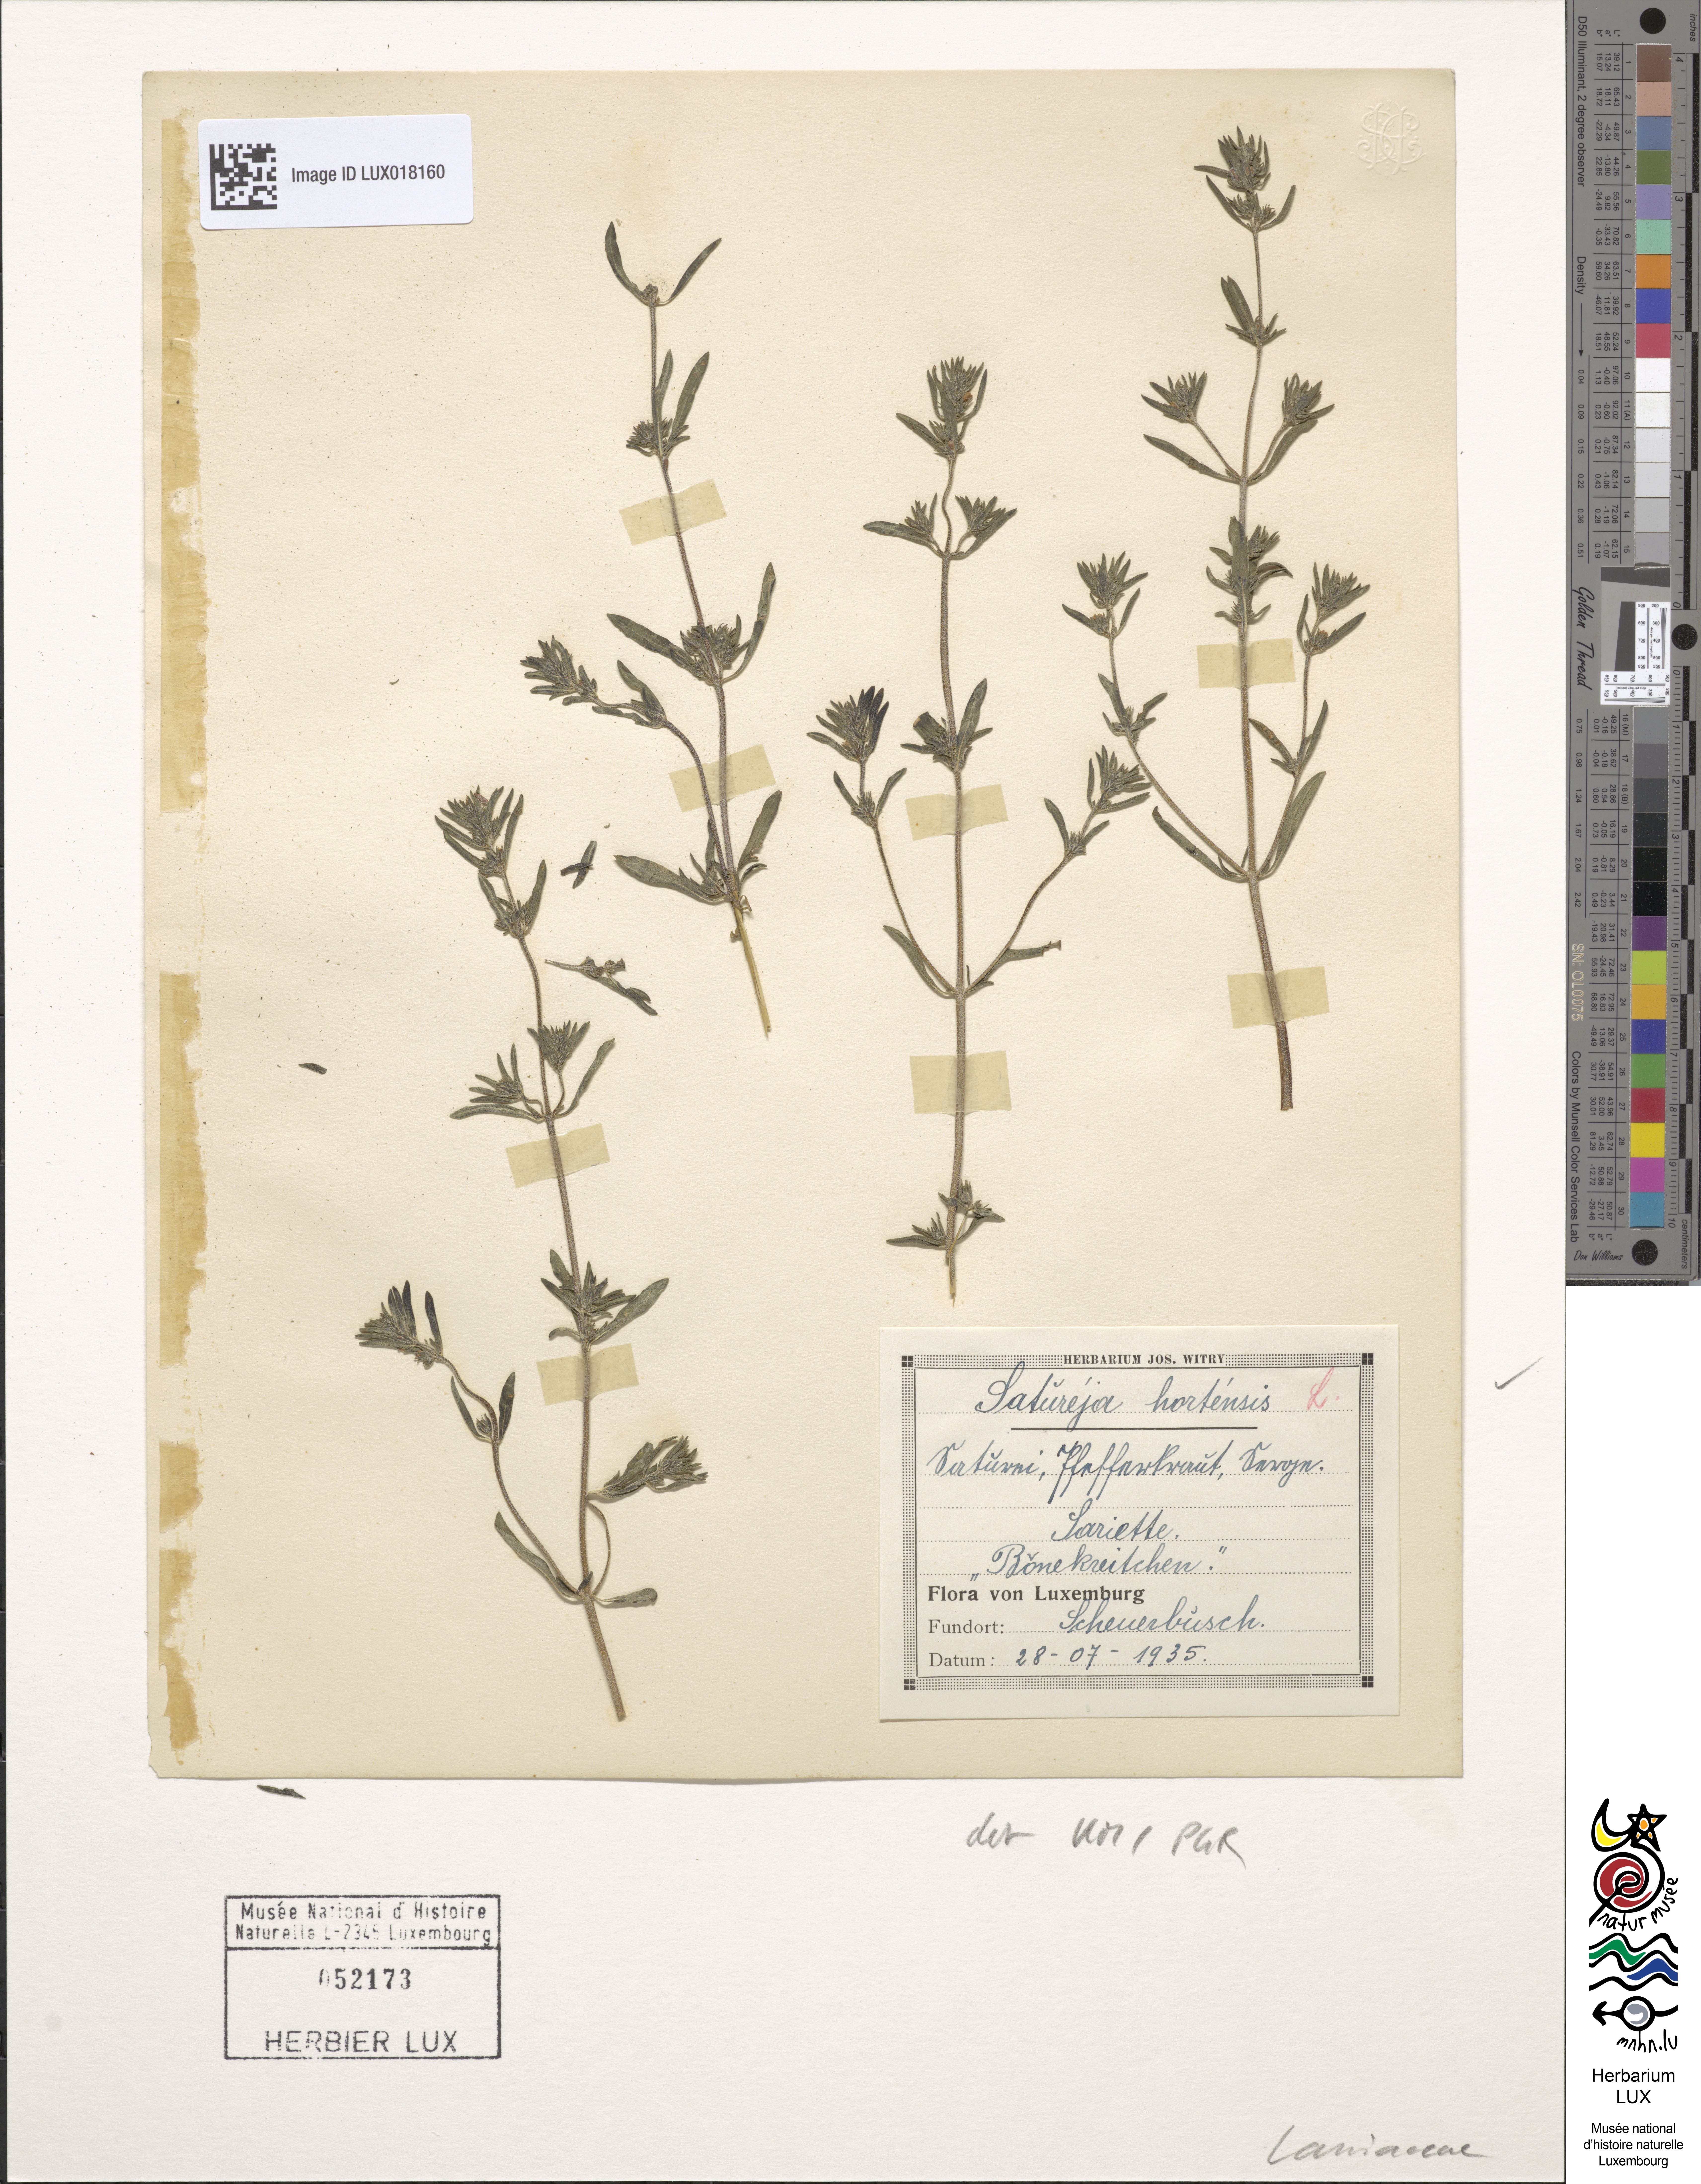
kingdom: Plantae
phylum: Tracheophyta
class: Magnoliopsida
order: Lamiales
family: Lamiaceae
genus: Satureja
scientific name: Satureja hortensis
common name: Summer savory
